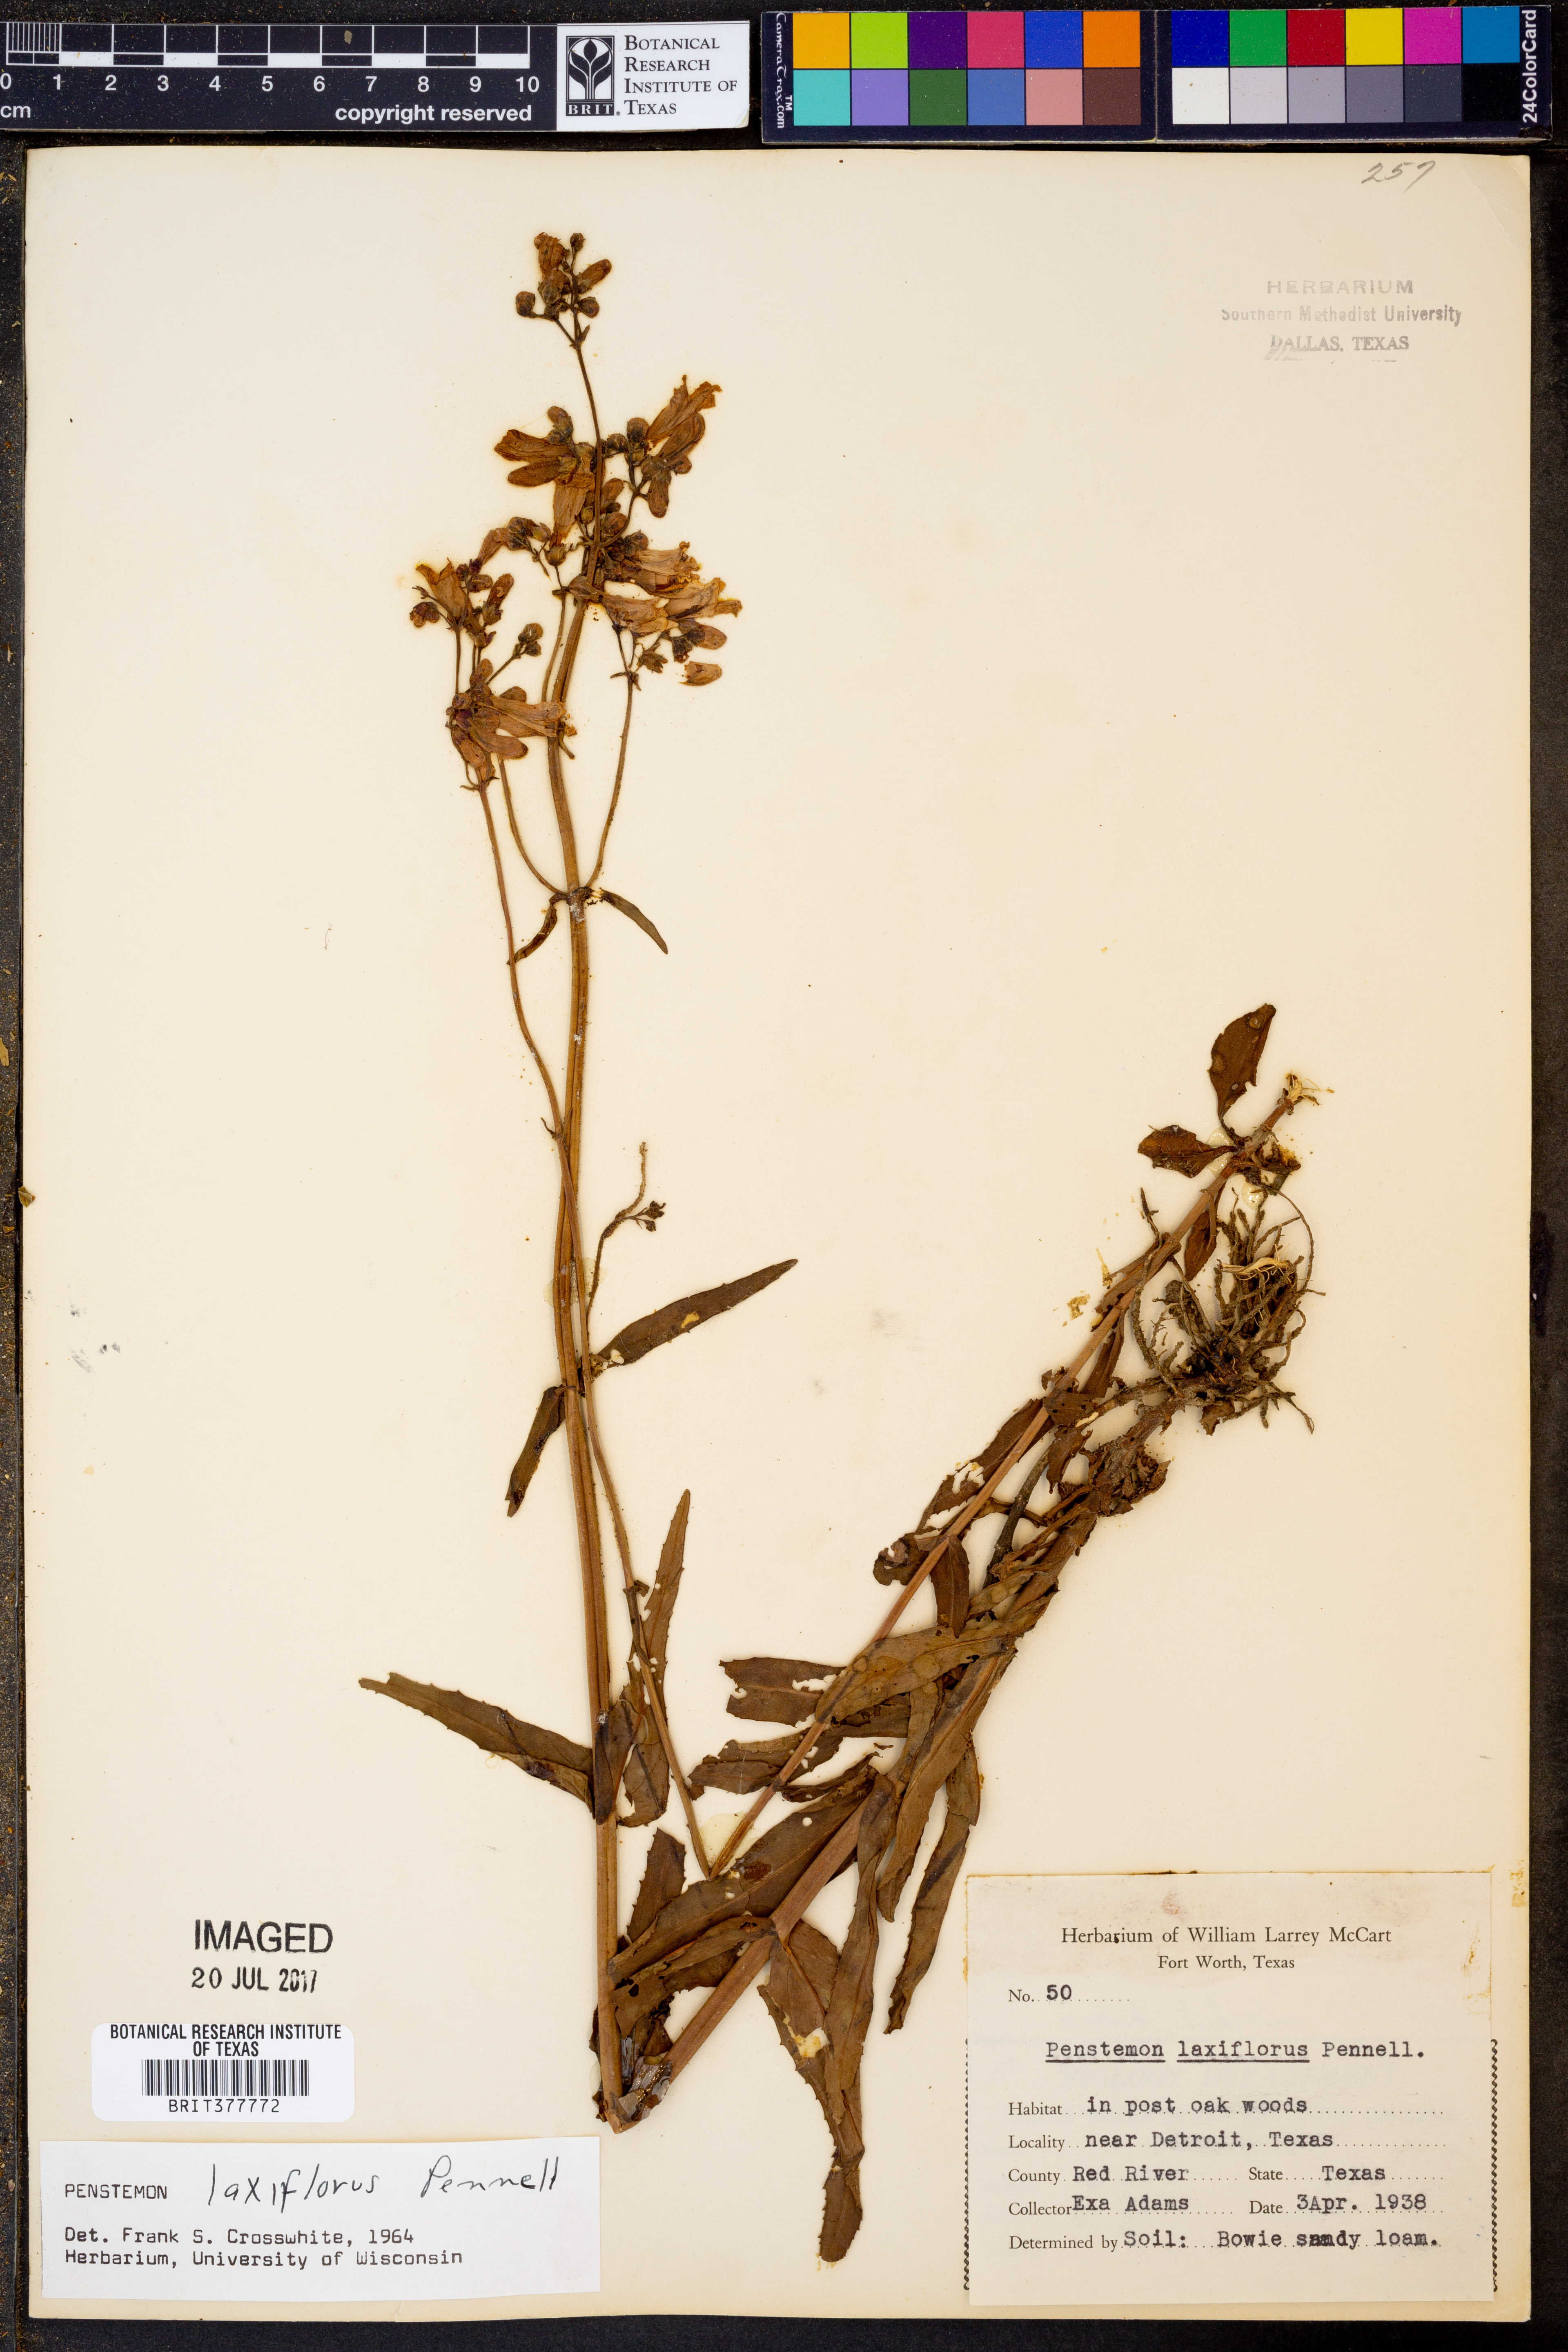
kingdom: Plantae
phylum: Tracheophyta
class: Magnoliopsida
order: Lamiales
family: Plantaginaceae
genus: Penstemon
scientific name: Penstemon laxiflorus
